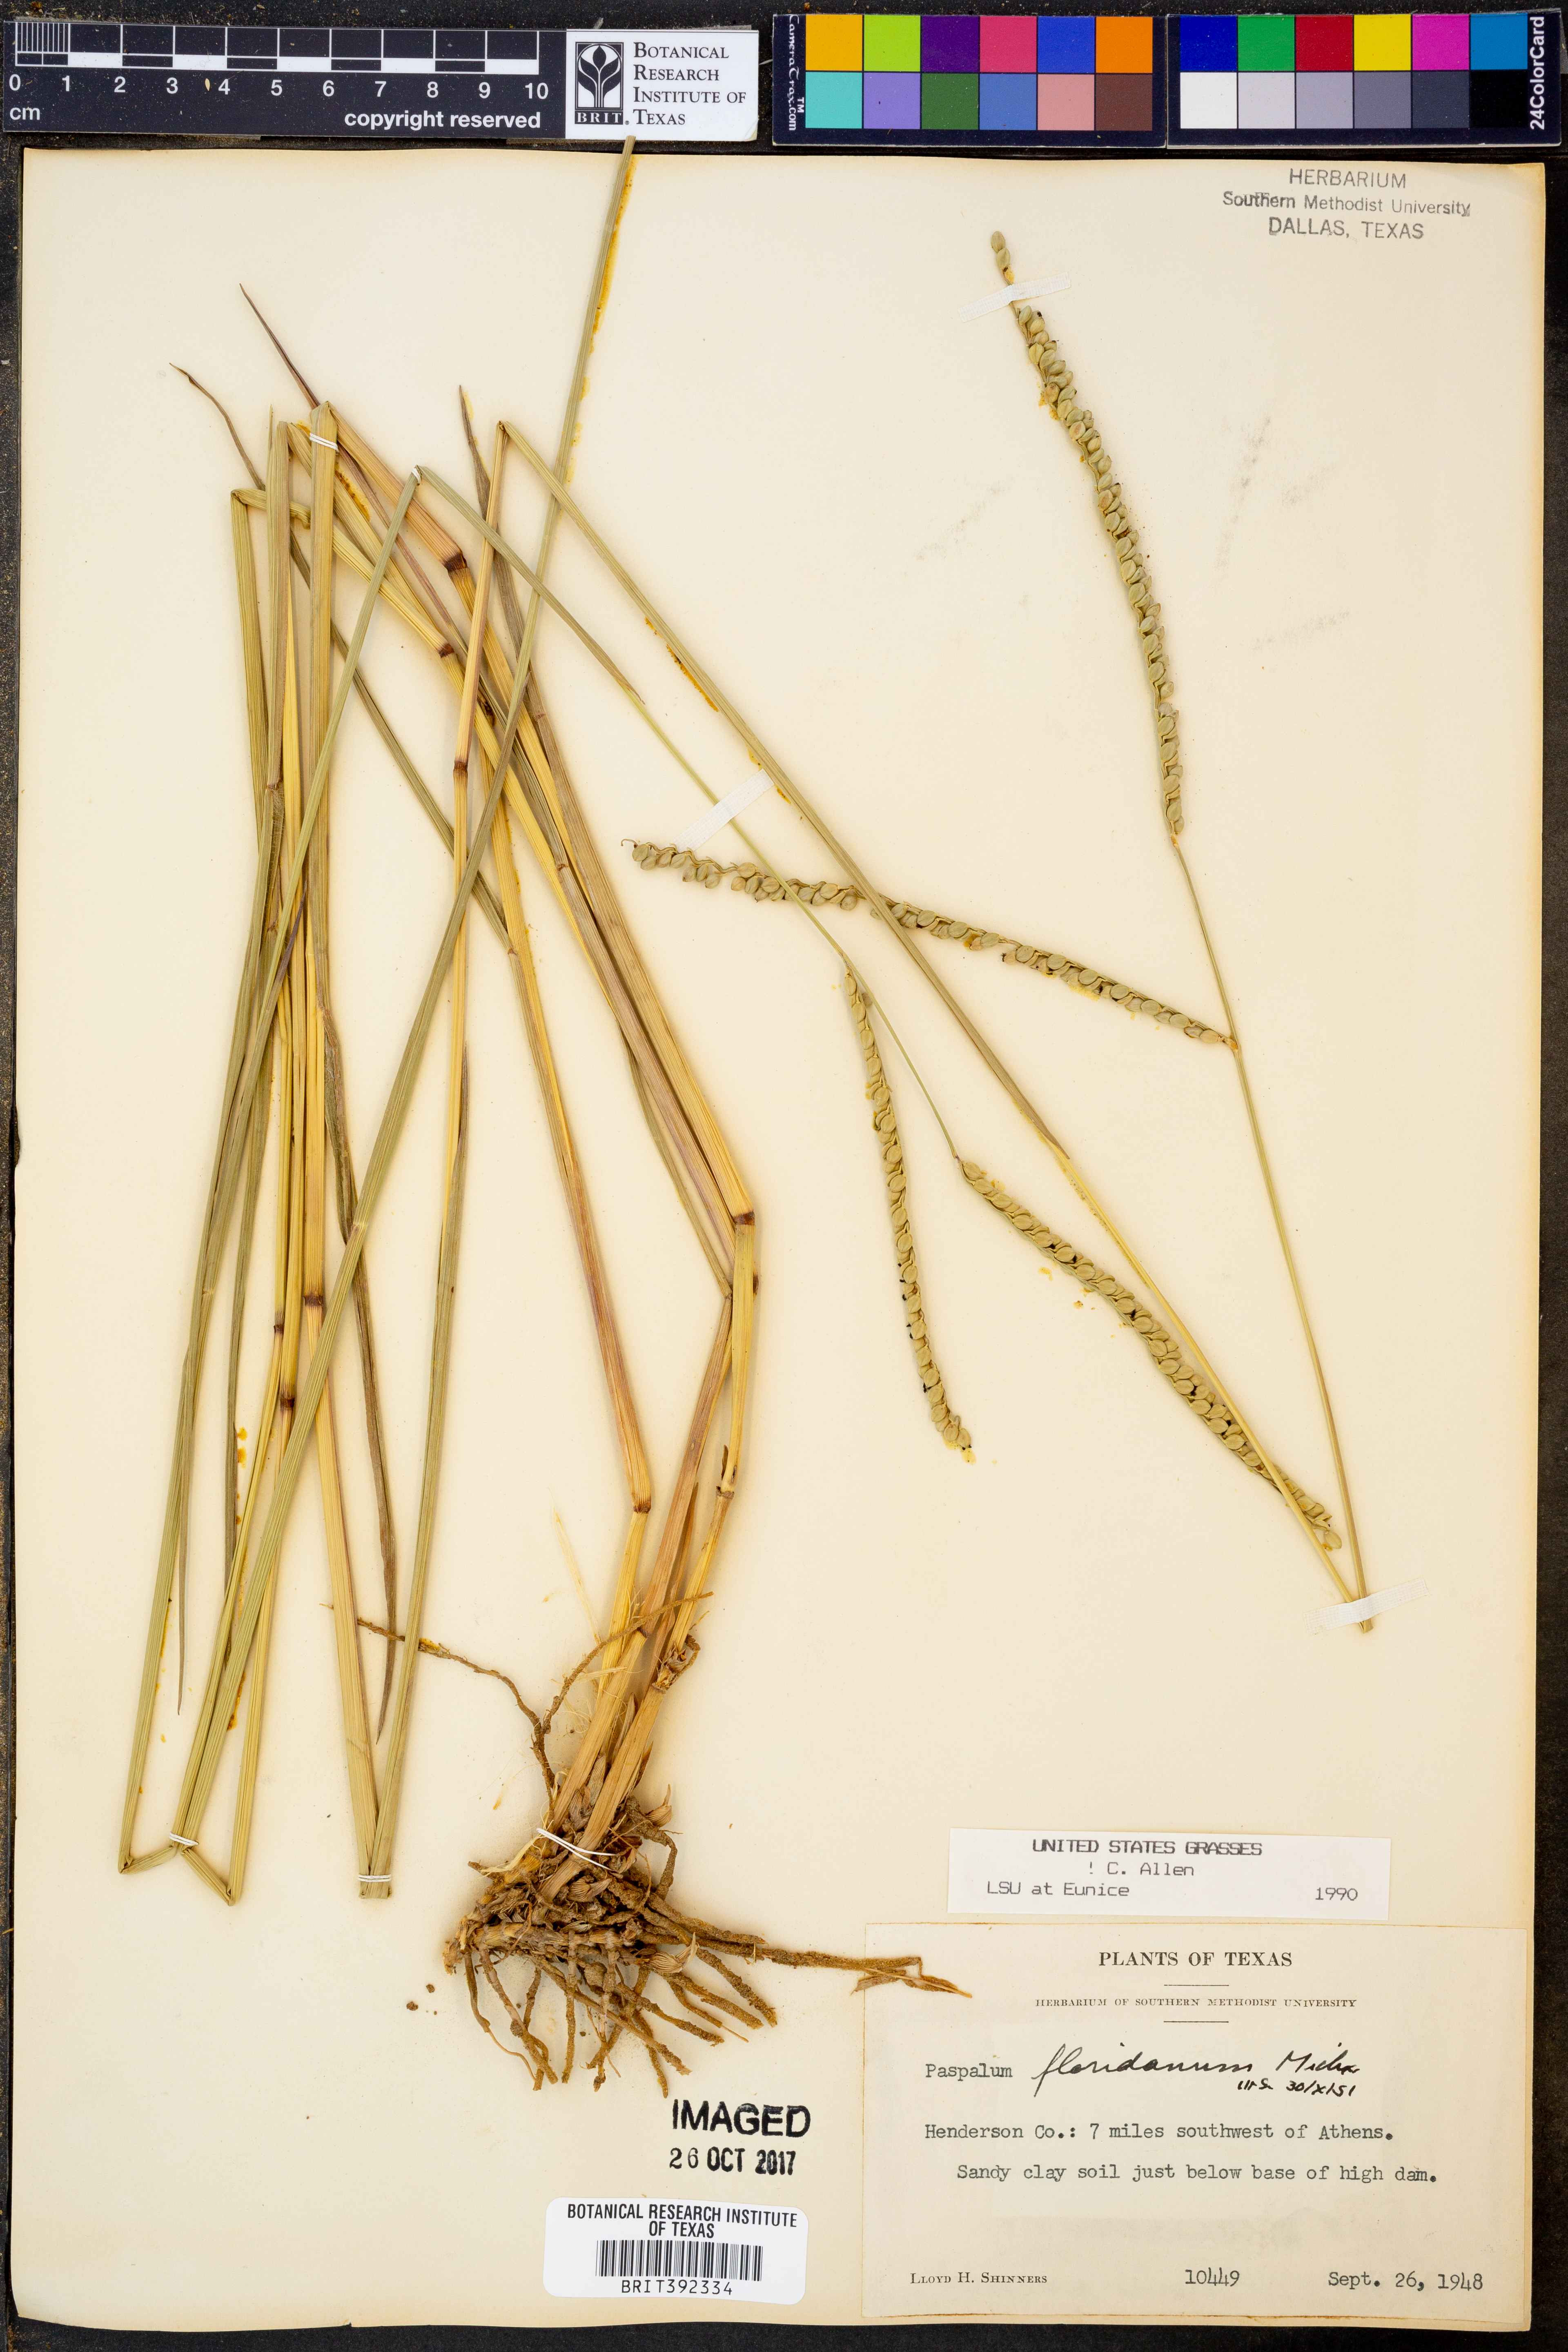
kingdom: Plantae
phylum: Tracheophyta
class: Liliopsida
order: Poales
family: Poaceae
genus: Paspalum
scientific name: Paspalum floridanum
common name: Florida paspalum
